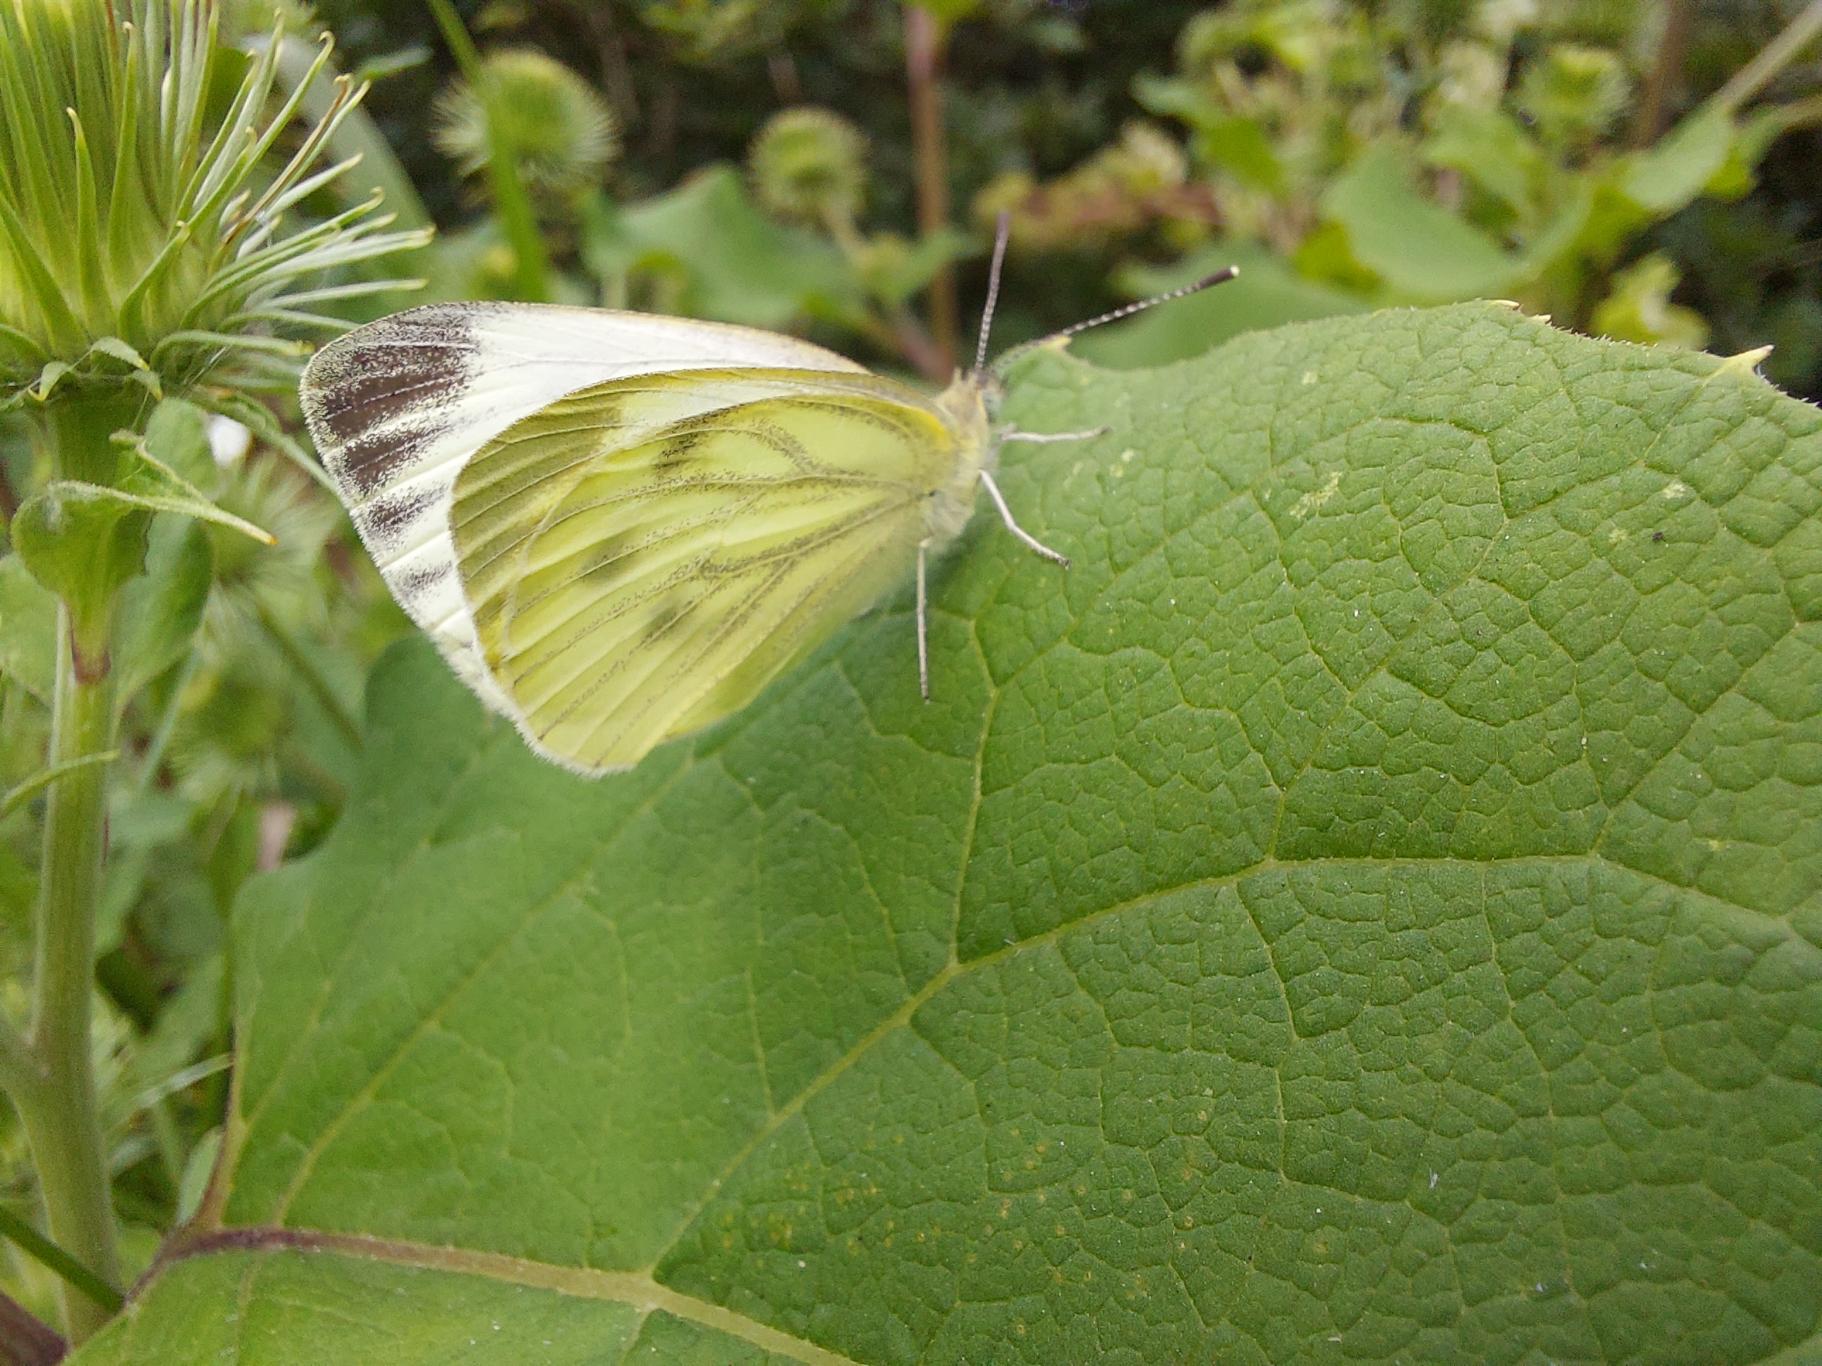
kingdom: Animalia
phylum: Arthropoda
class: Insecta
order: Lepidoptera
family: Pieridae
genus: Pieris
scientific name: Pieris napi
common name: Grønåret kålsommerfugl
